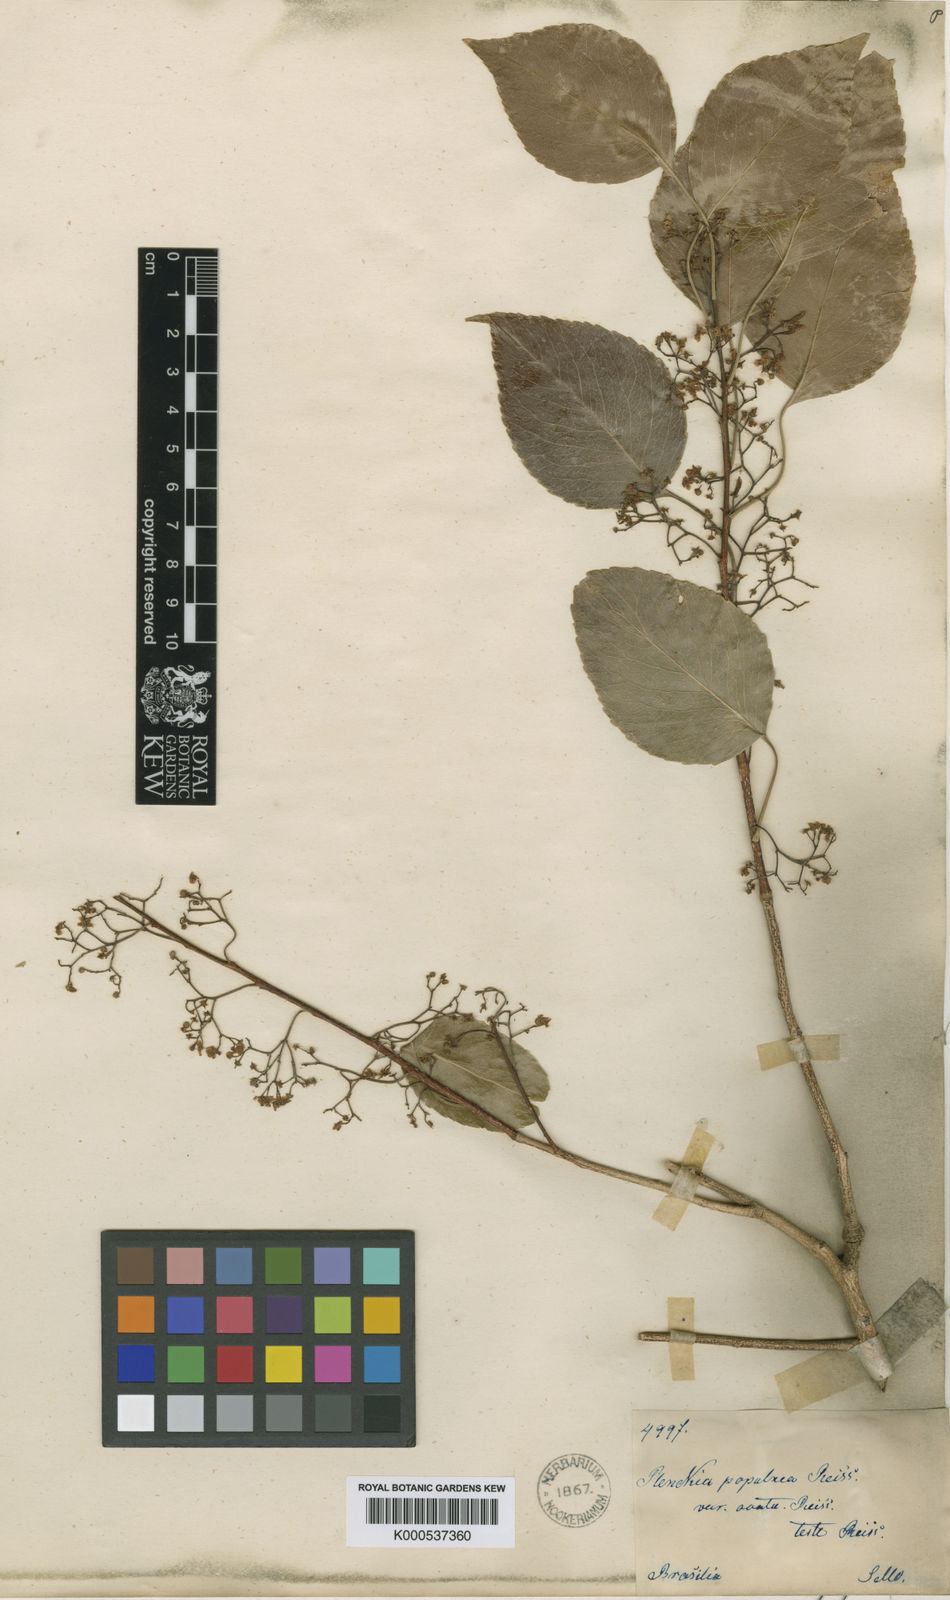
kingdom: Plantae
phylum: Tracheophyta
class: Magnoliopsida
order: Celastrales
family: Celastraceae
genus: Plenckia
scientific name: Plenckia populnea
